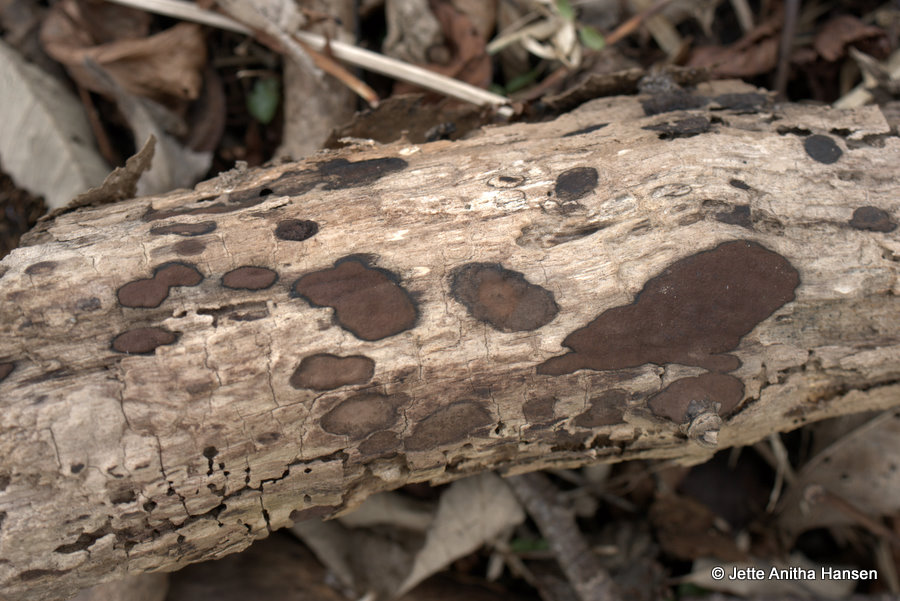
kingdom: Fungi
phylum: Ascomycota
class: Sordariomycetes
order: Xylariales
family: Hypoxylaceae
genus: Hypoxylon
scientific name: Hypoxylon petriniae
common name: nedsænket kulbær
